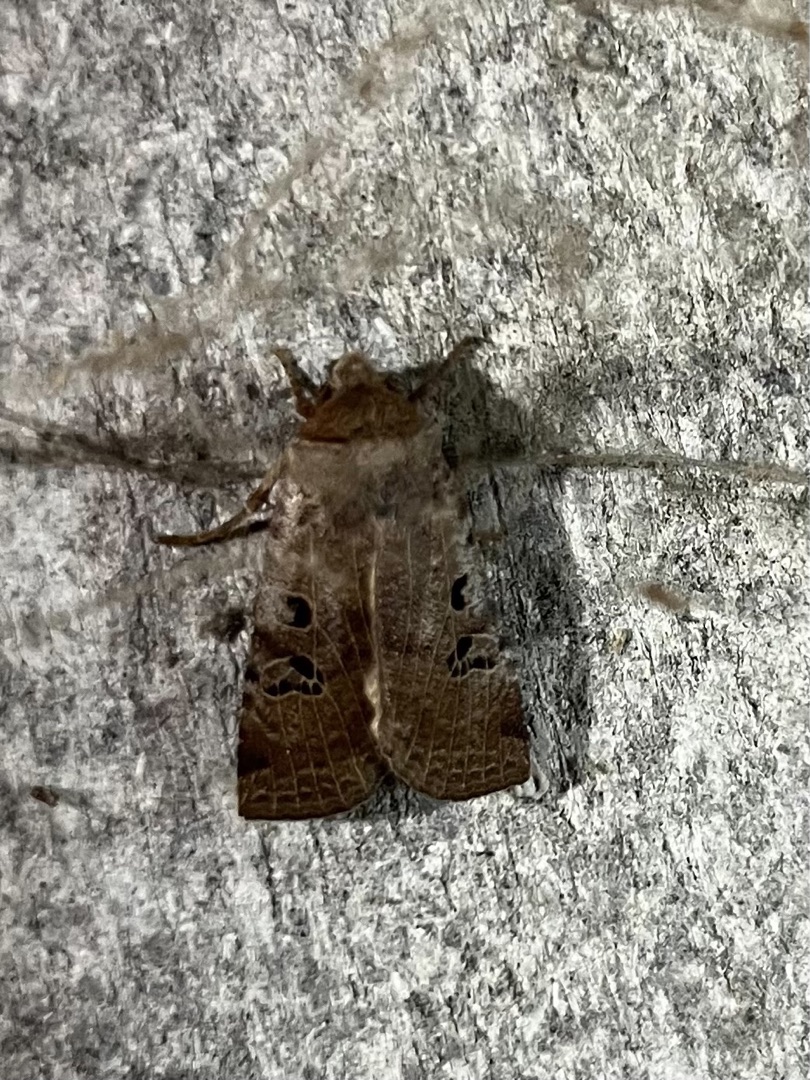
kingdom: Animalia
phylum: Arthropoda
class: Insecta
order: Lepidoptera
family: Noctuidae
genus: Conistra
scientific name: Conistra rubiginosa
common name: Sortmærket overvintringsugle
